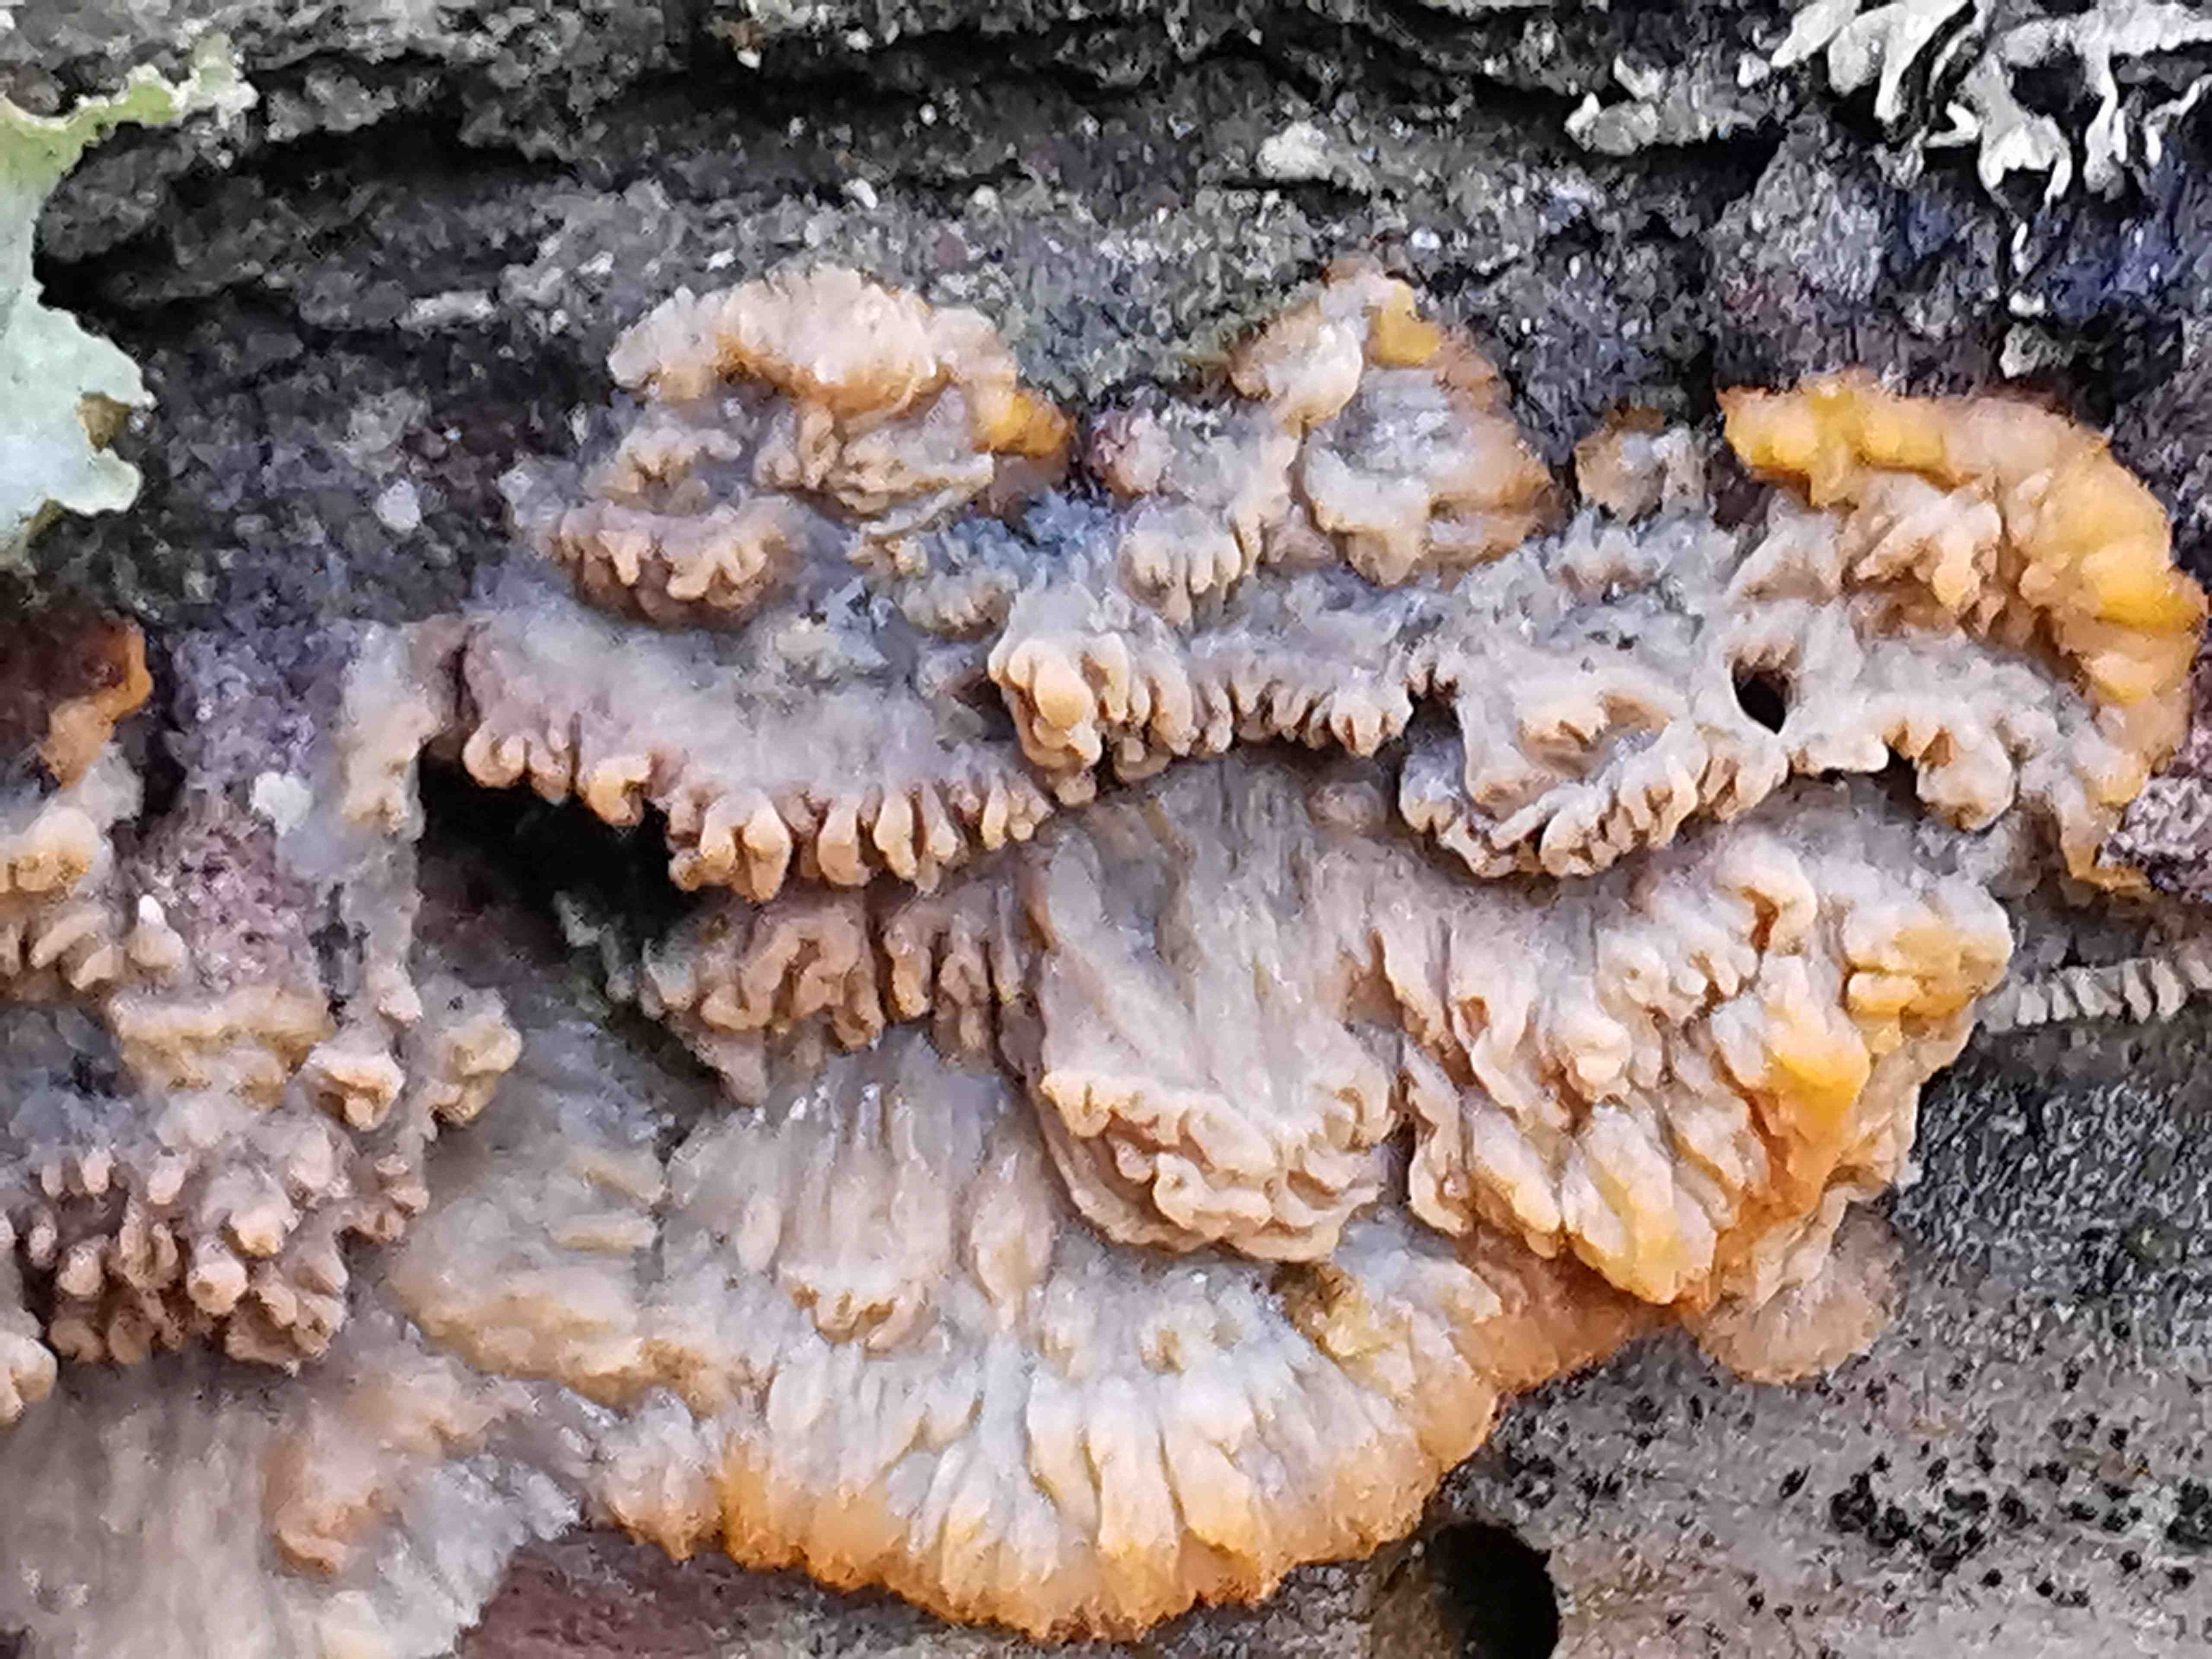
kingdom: Fungi
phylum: Basidiomycota
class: Agaricomycetes
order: Polyporales
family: Meruliaceae
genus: Phlebia
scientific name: Phlebia radiata
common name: stråle-åresvamp
